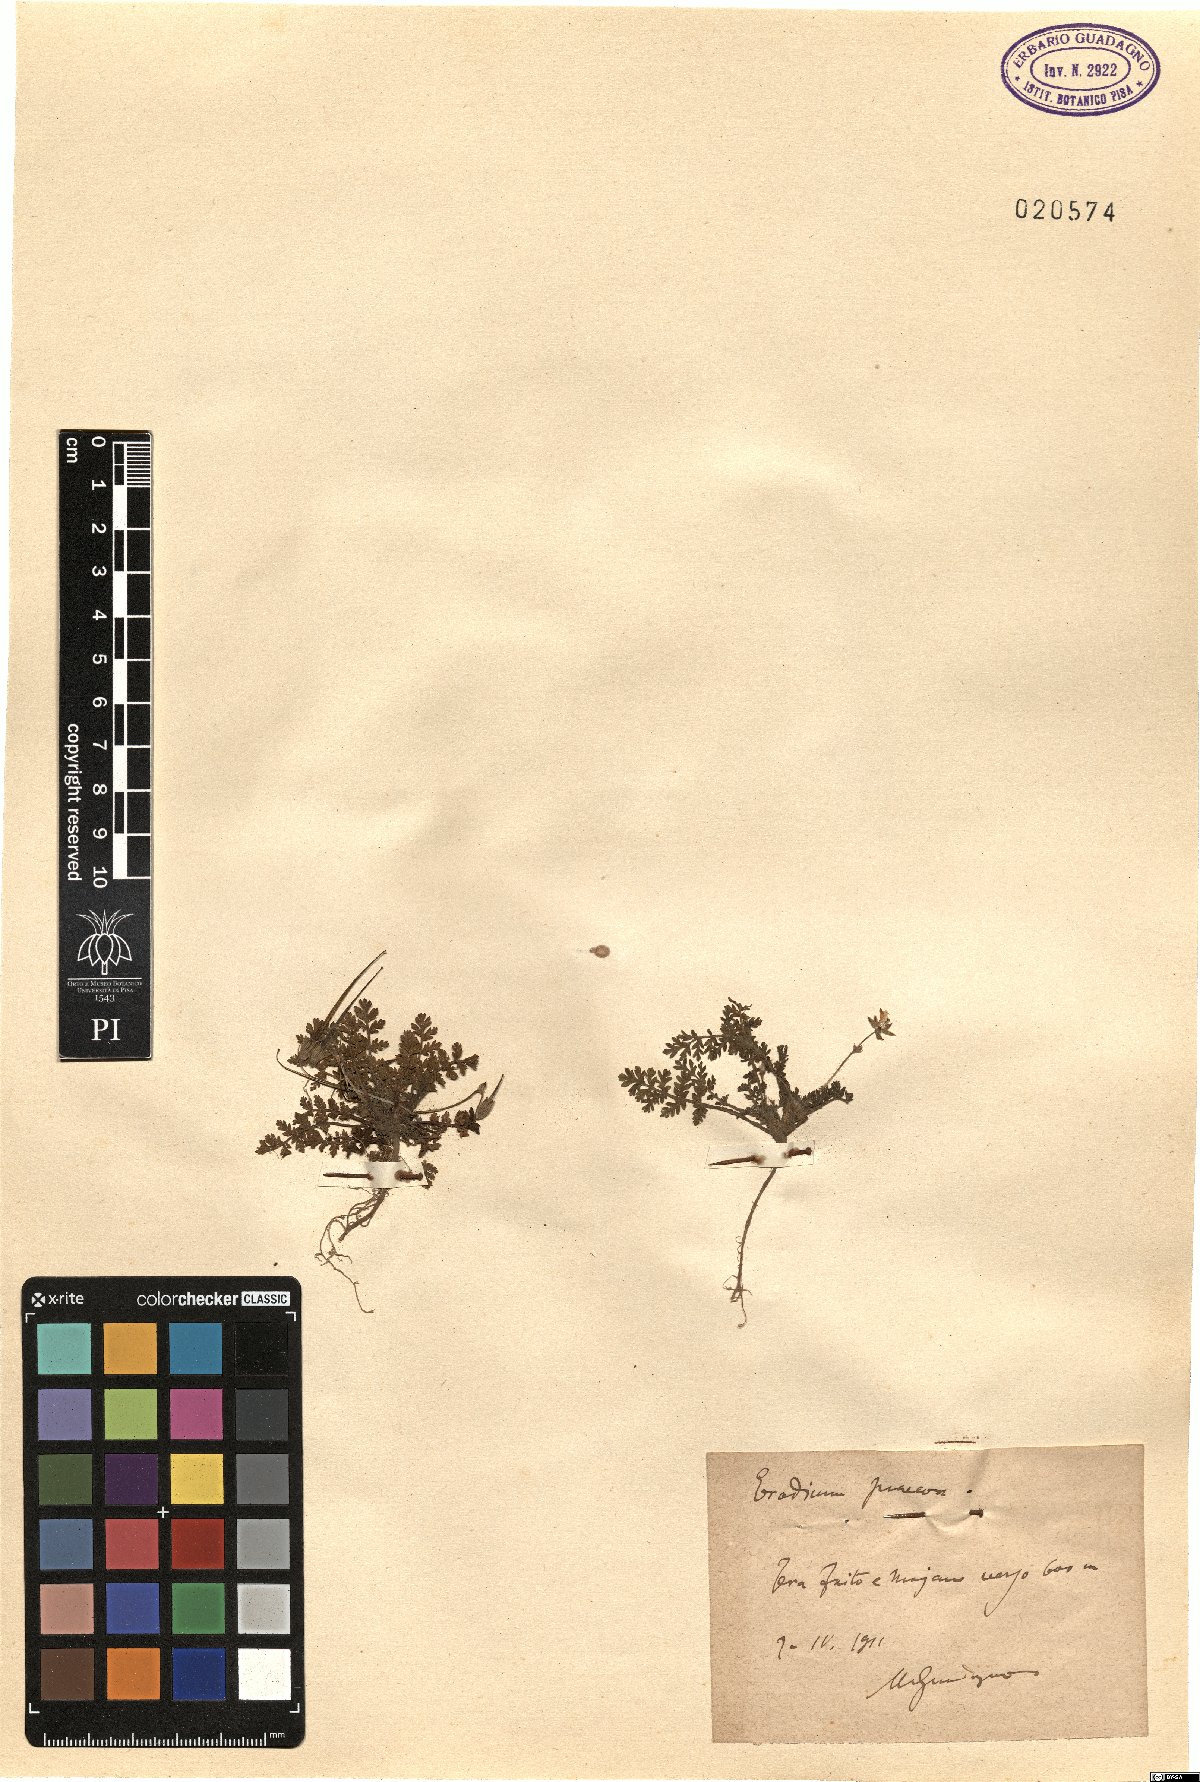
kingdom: Plantae
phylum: Tracheophyta
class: Magnoliopsida
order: Geraniales
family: Geraniaceae
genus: Erodium
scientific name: Erodium cicutarium
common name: Common stork's-bill
